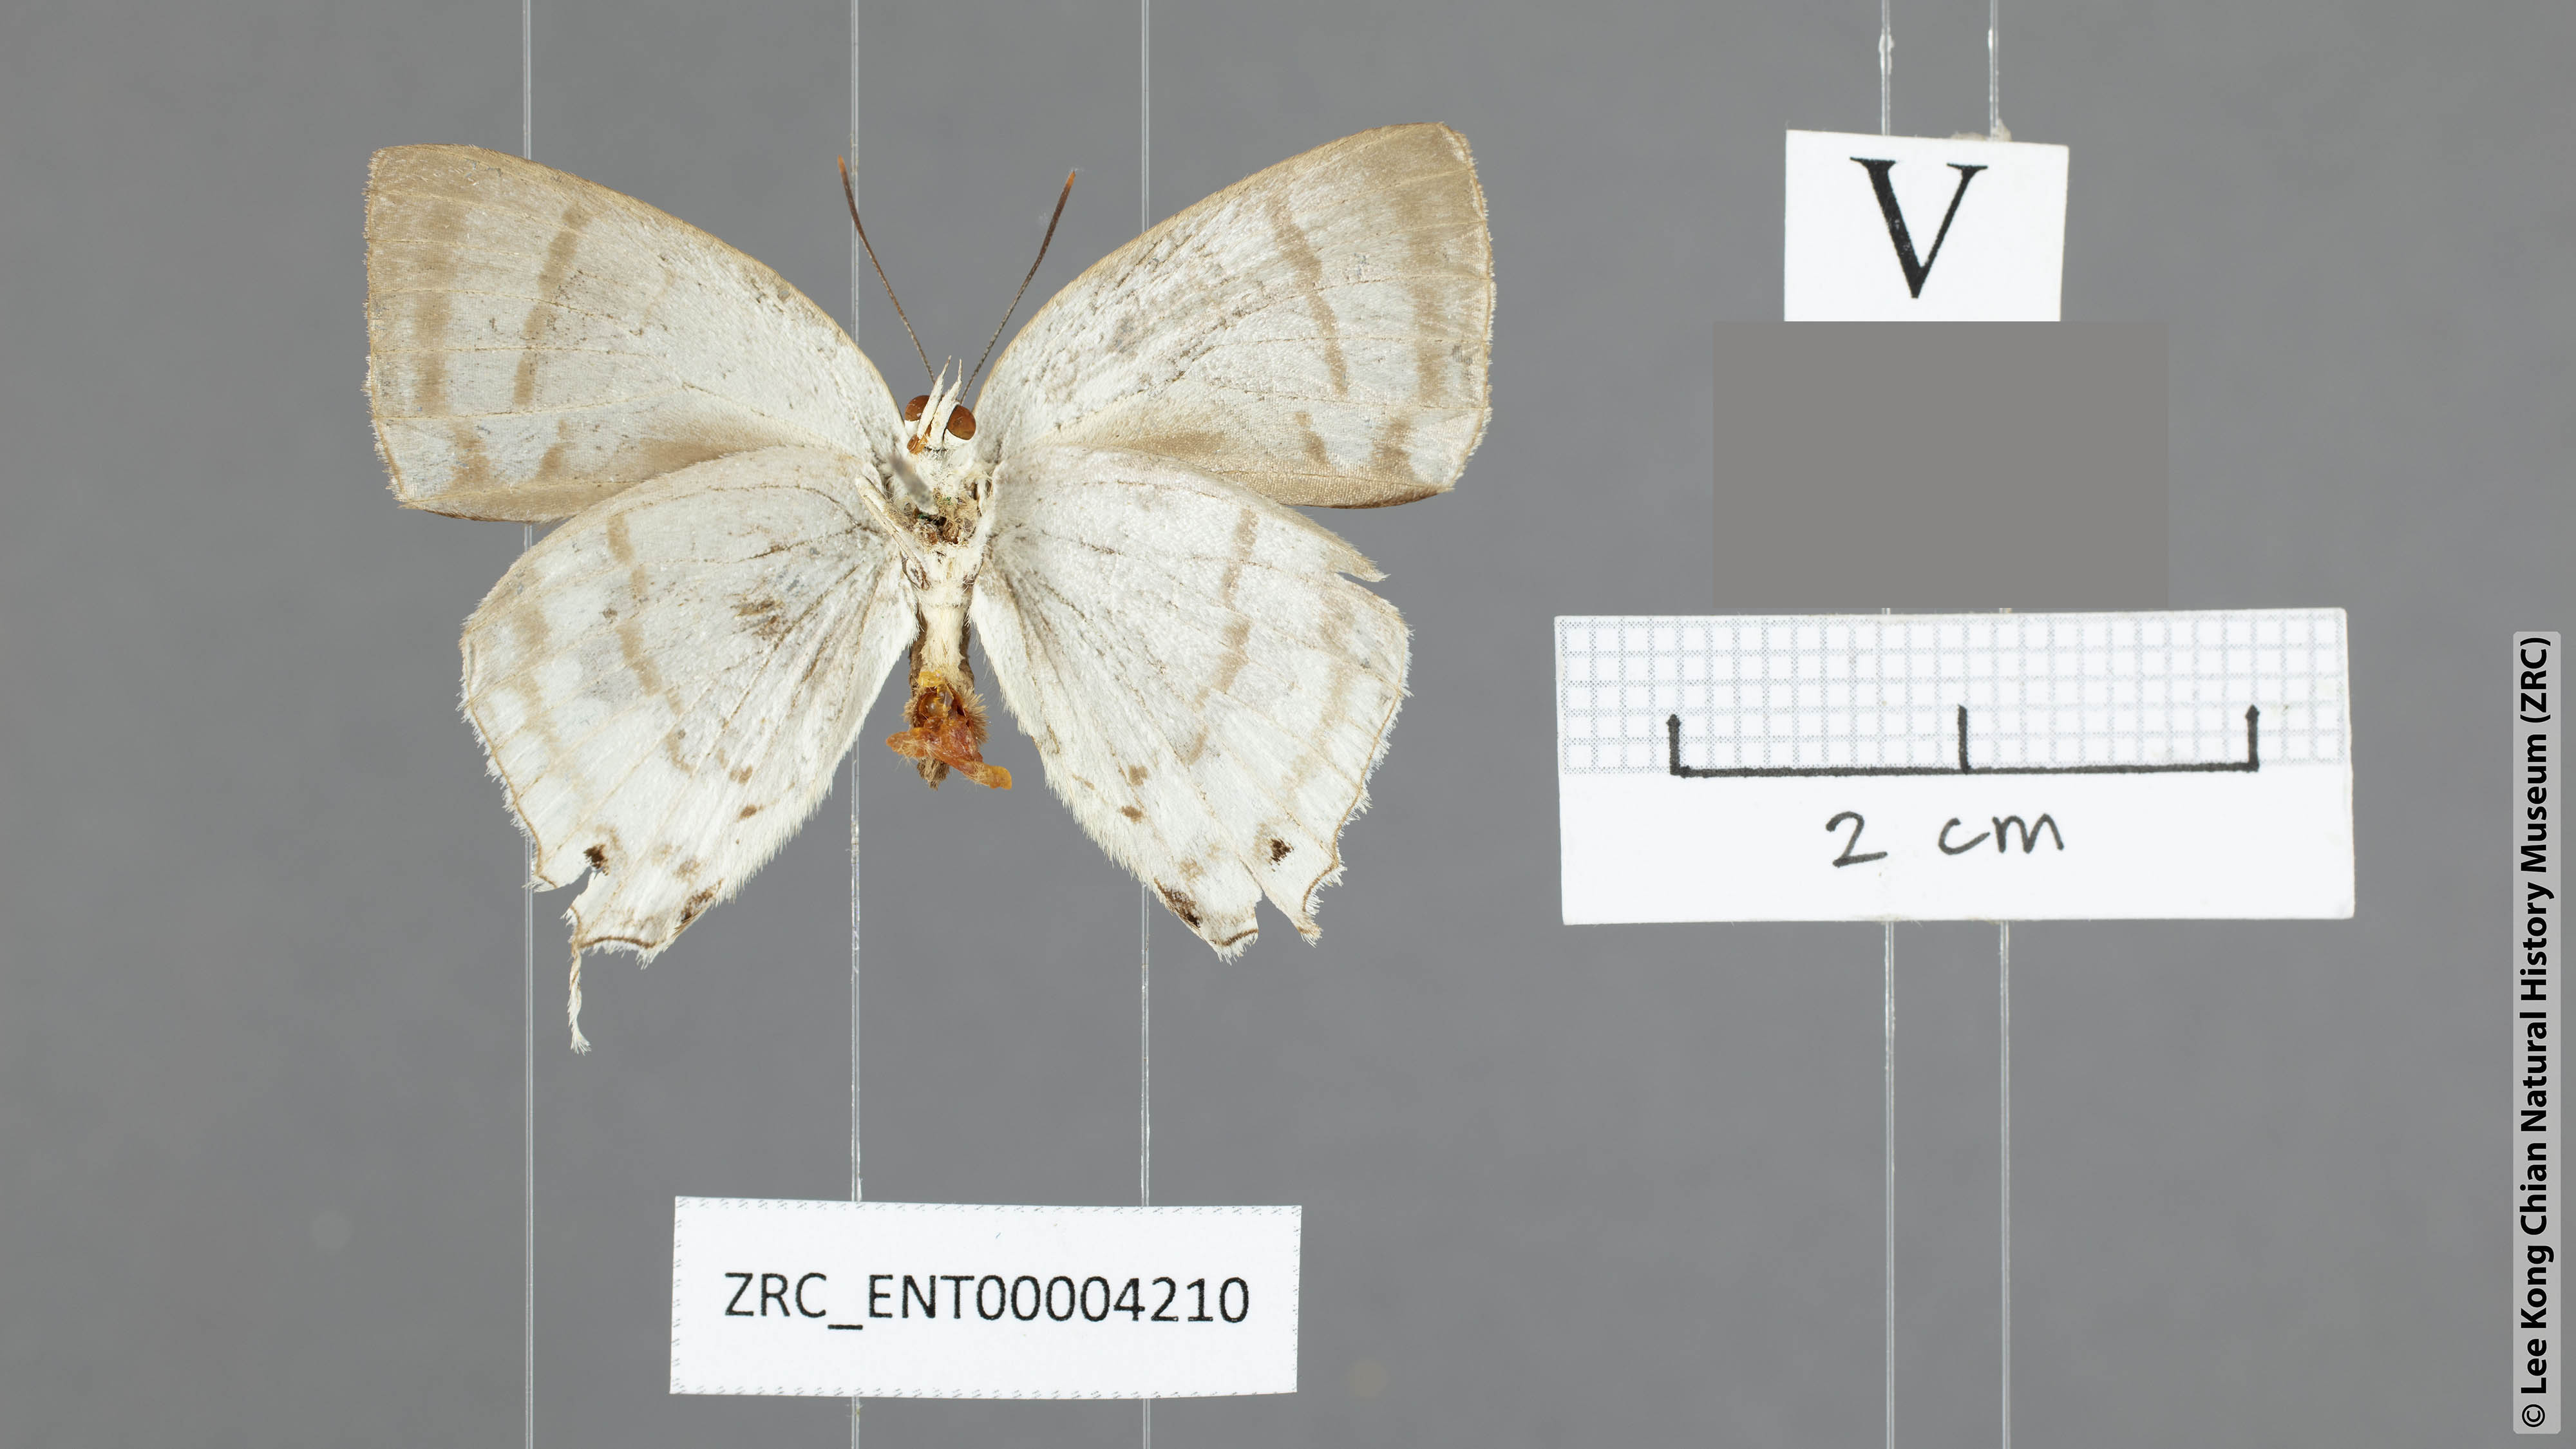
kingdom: Animalia
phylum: Arthropoda
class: Insecta
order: Lepidoptera
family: Lycaenidae
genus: Drina
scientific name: Drina cowani
